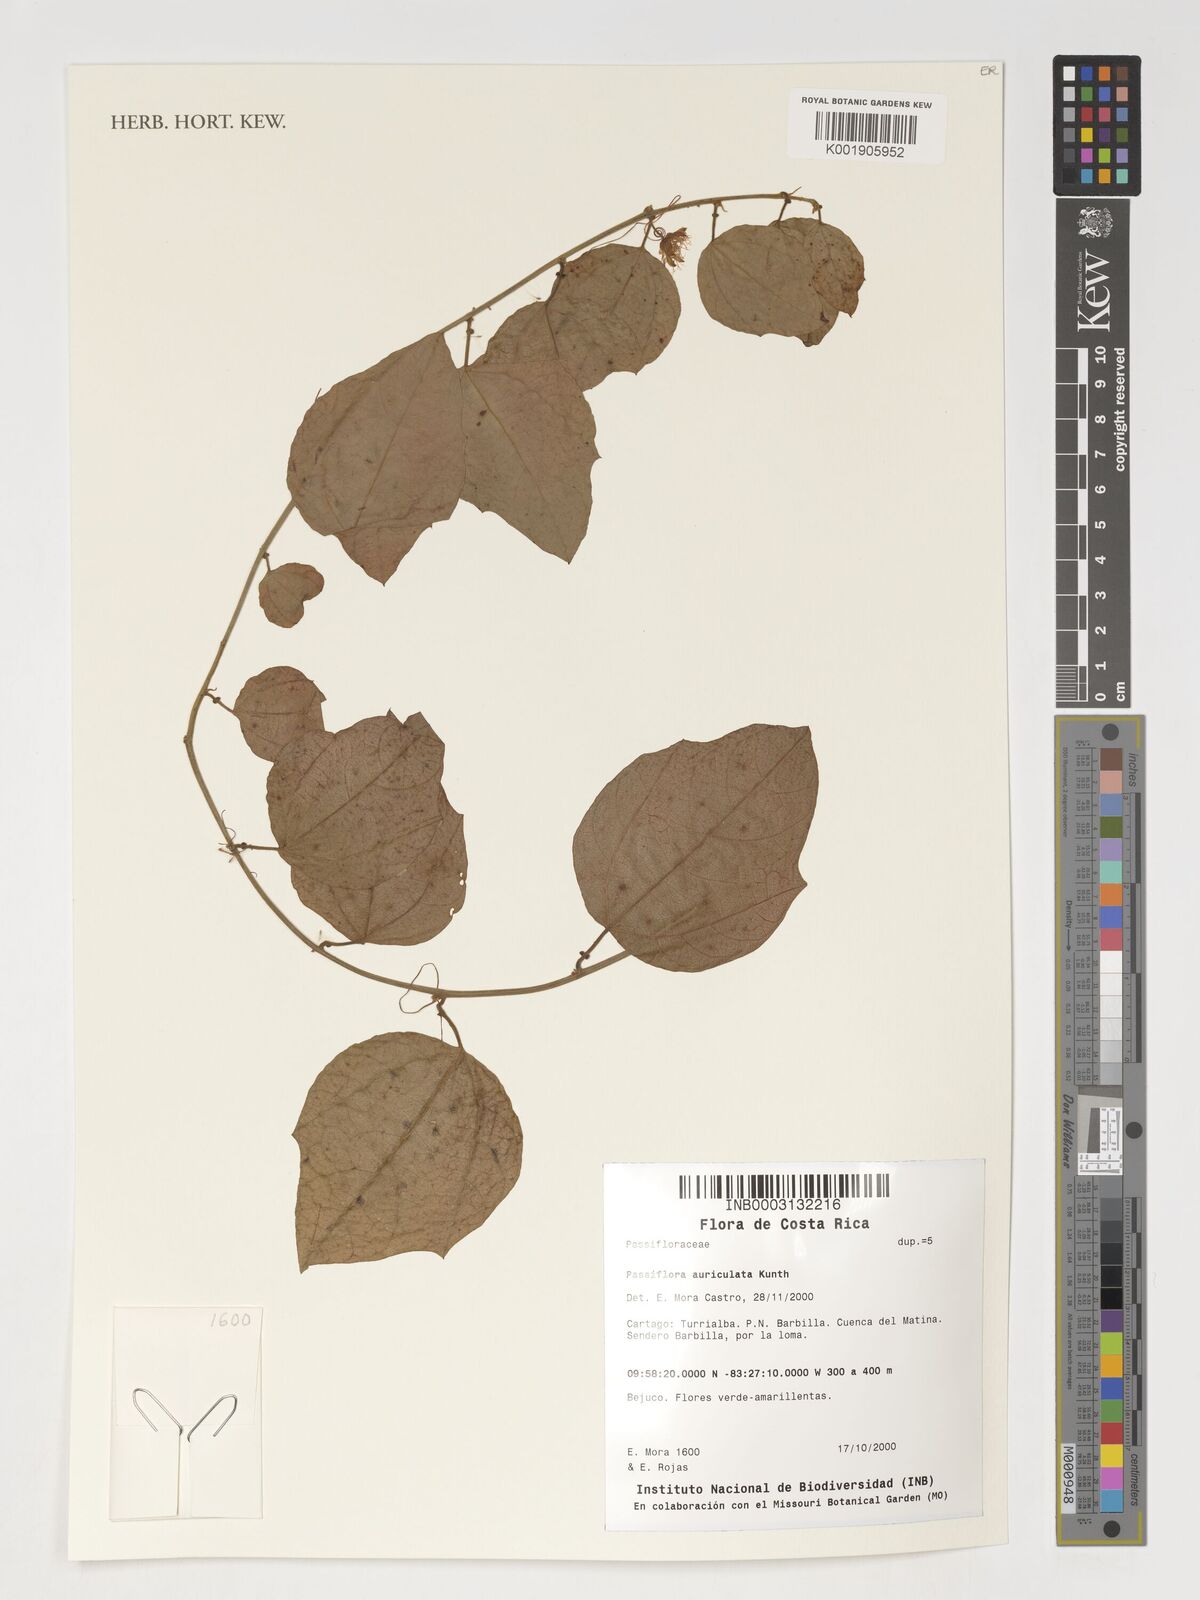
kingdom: Plantae
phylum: Tracheophyta
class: Magnoliopsida
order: Malpighiales
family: Passifloraceae
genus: Passiflora
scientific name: Passiflora auriculata
